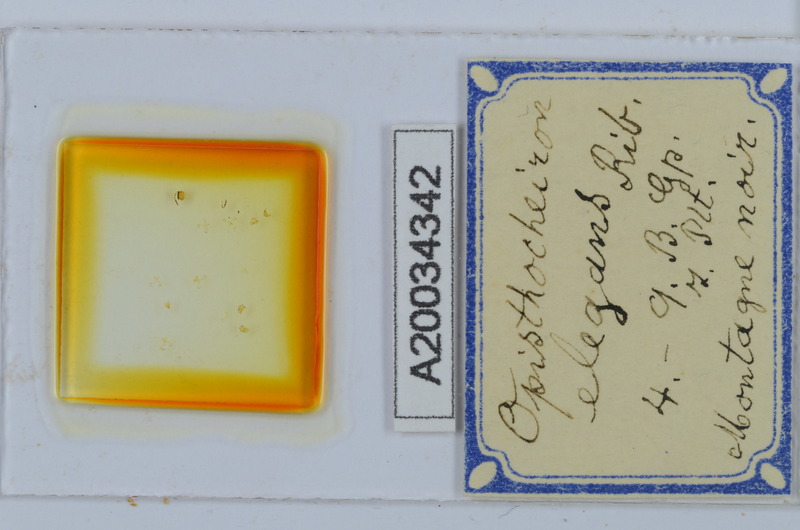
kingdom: Animalia
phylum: Arthropoda
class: Diplopoda
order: Chordeumatida
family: Opisthocheiridae
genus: Opisthocheiron
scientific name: Opisthocheiron elegans
